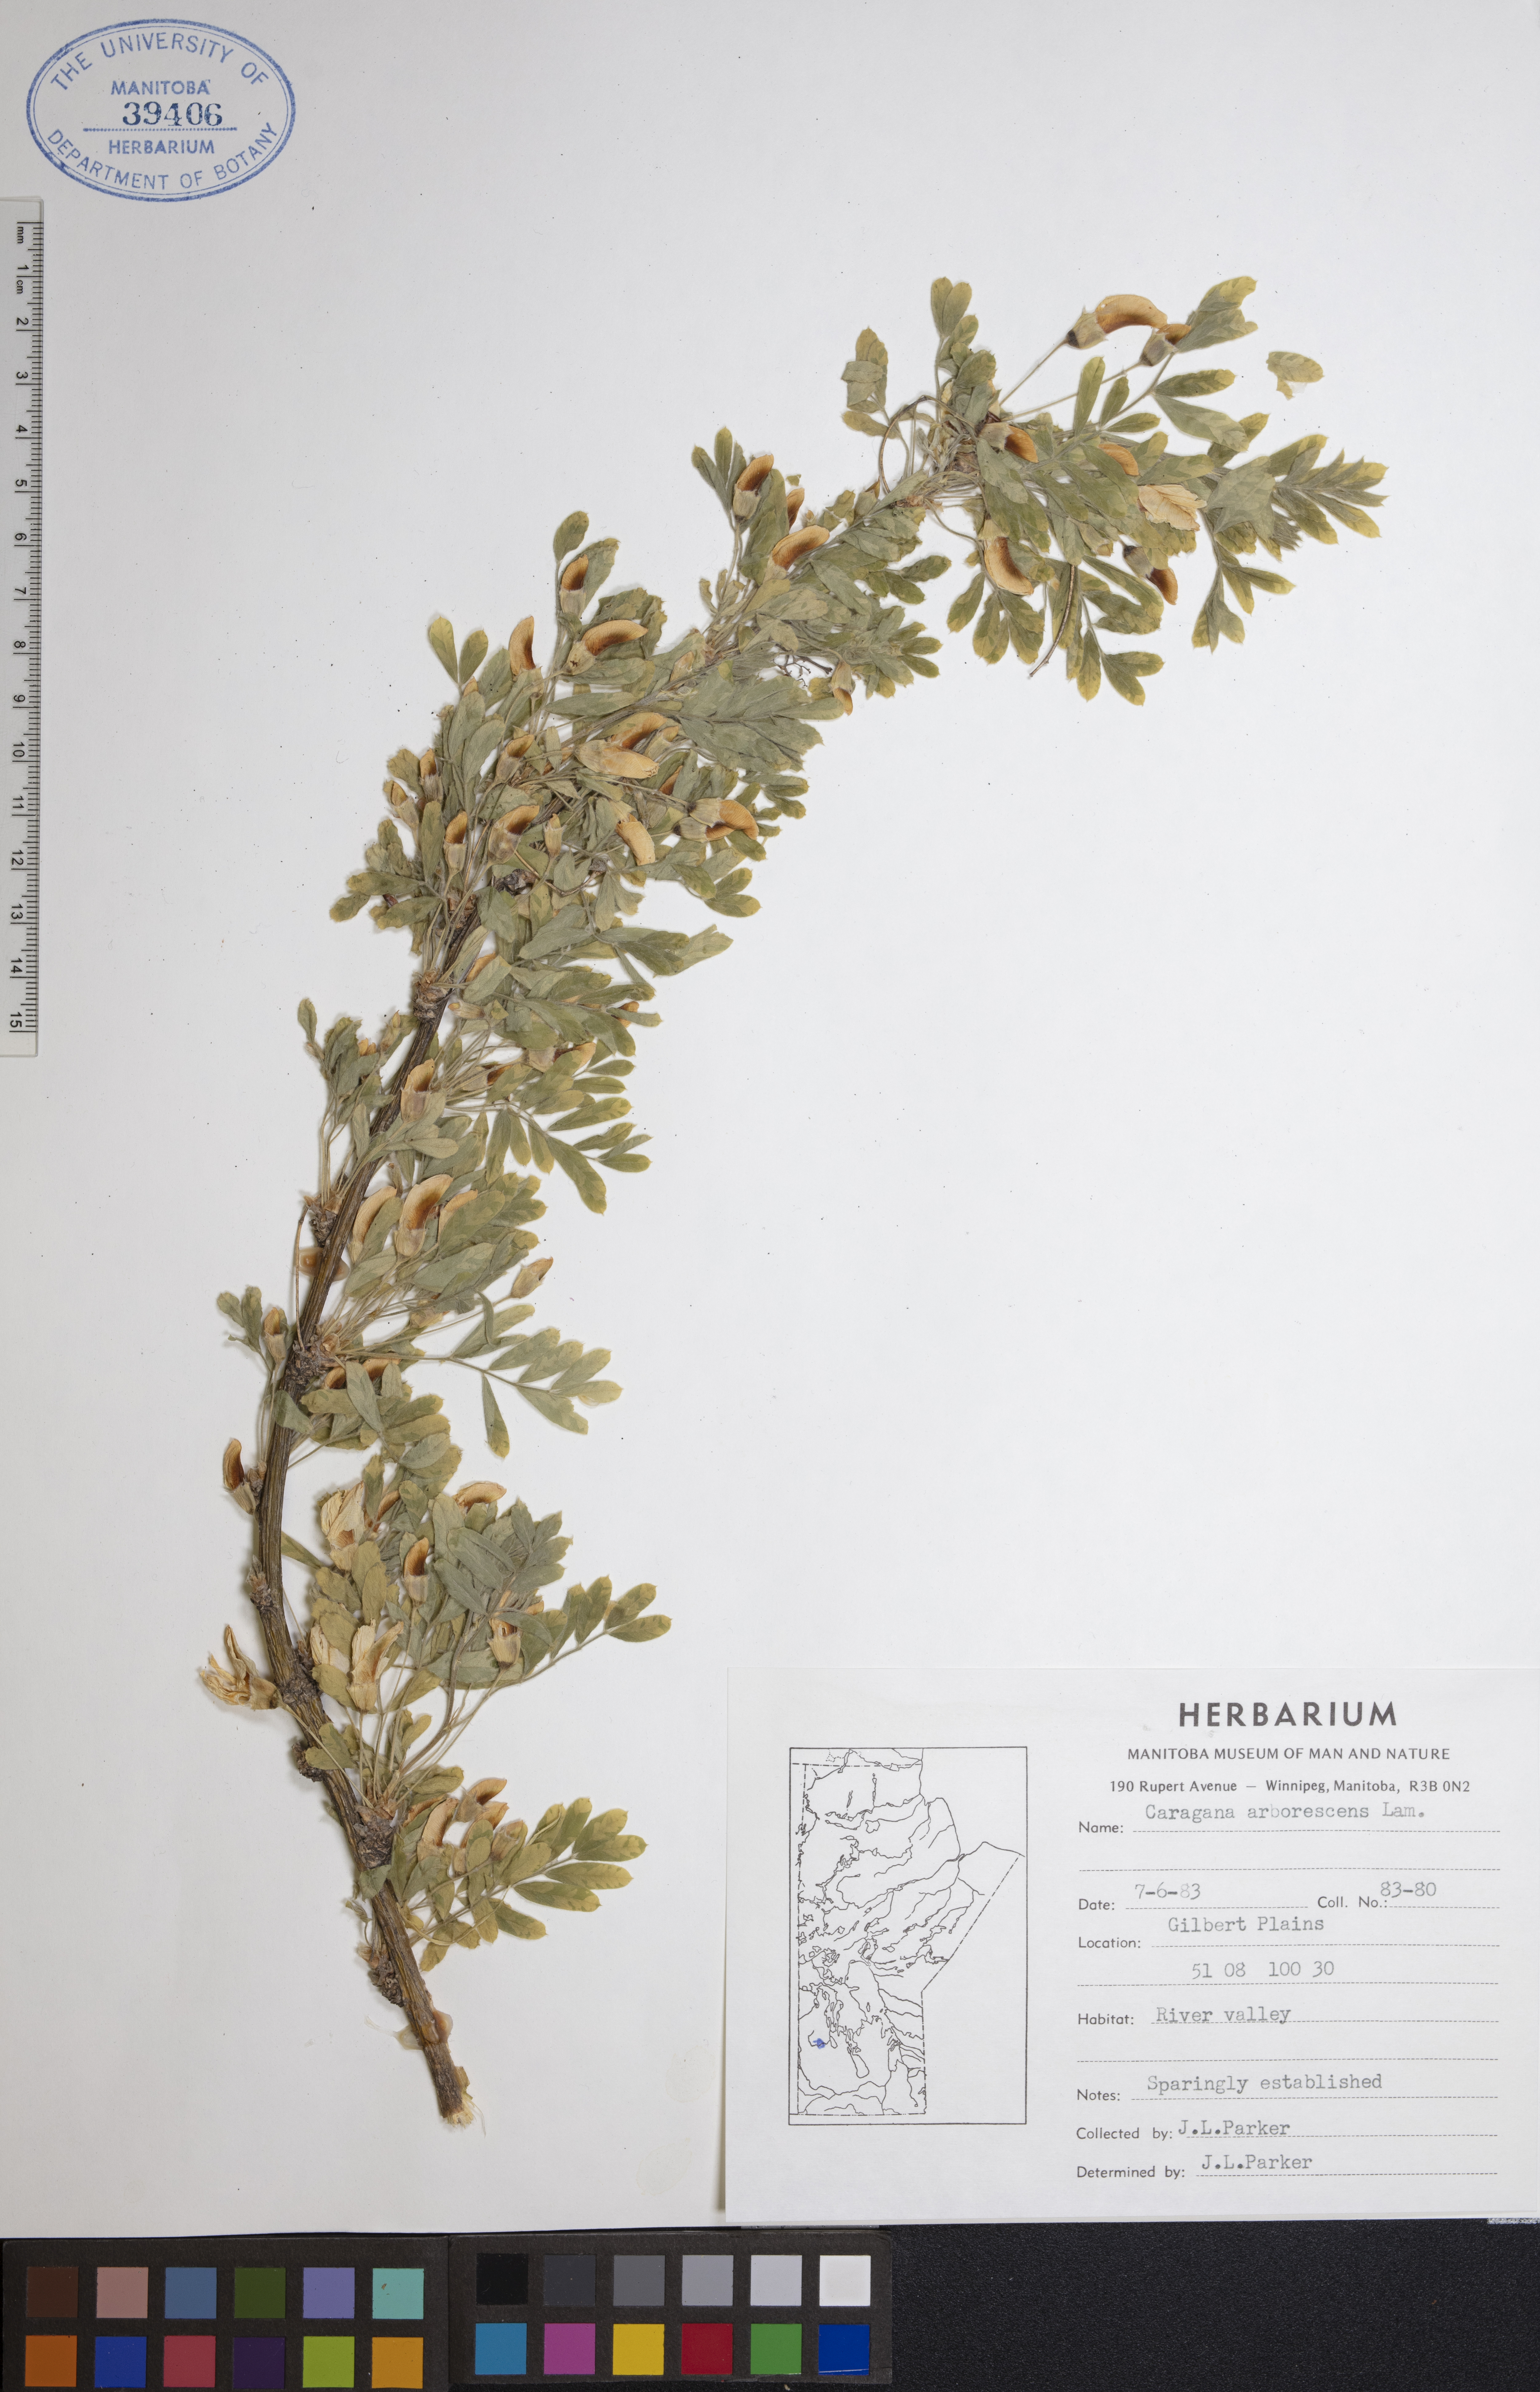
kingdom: Plantae
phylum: Tracheophyta
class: Magnoliopsida
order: Fabales
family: Fabaceae
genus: Caragana
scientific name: Caragana arborescens
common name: Siberian peashrub
